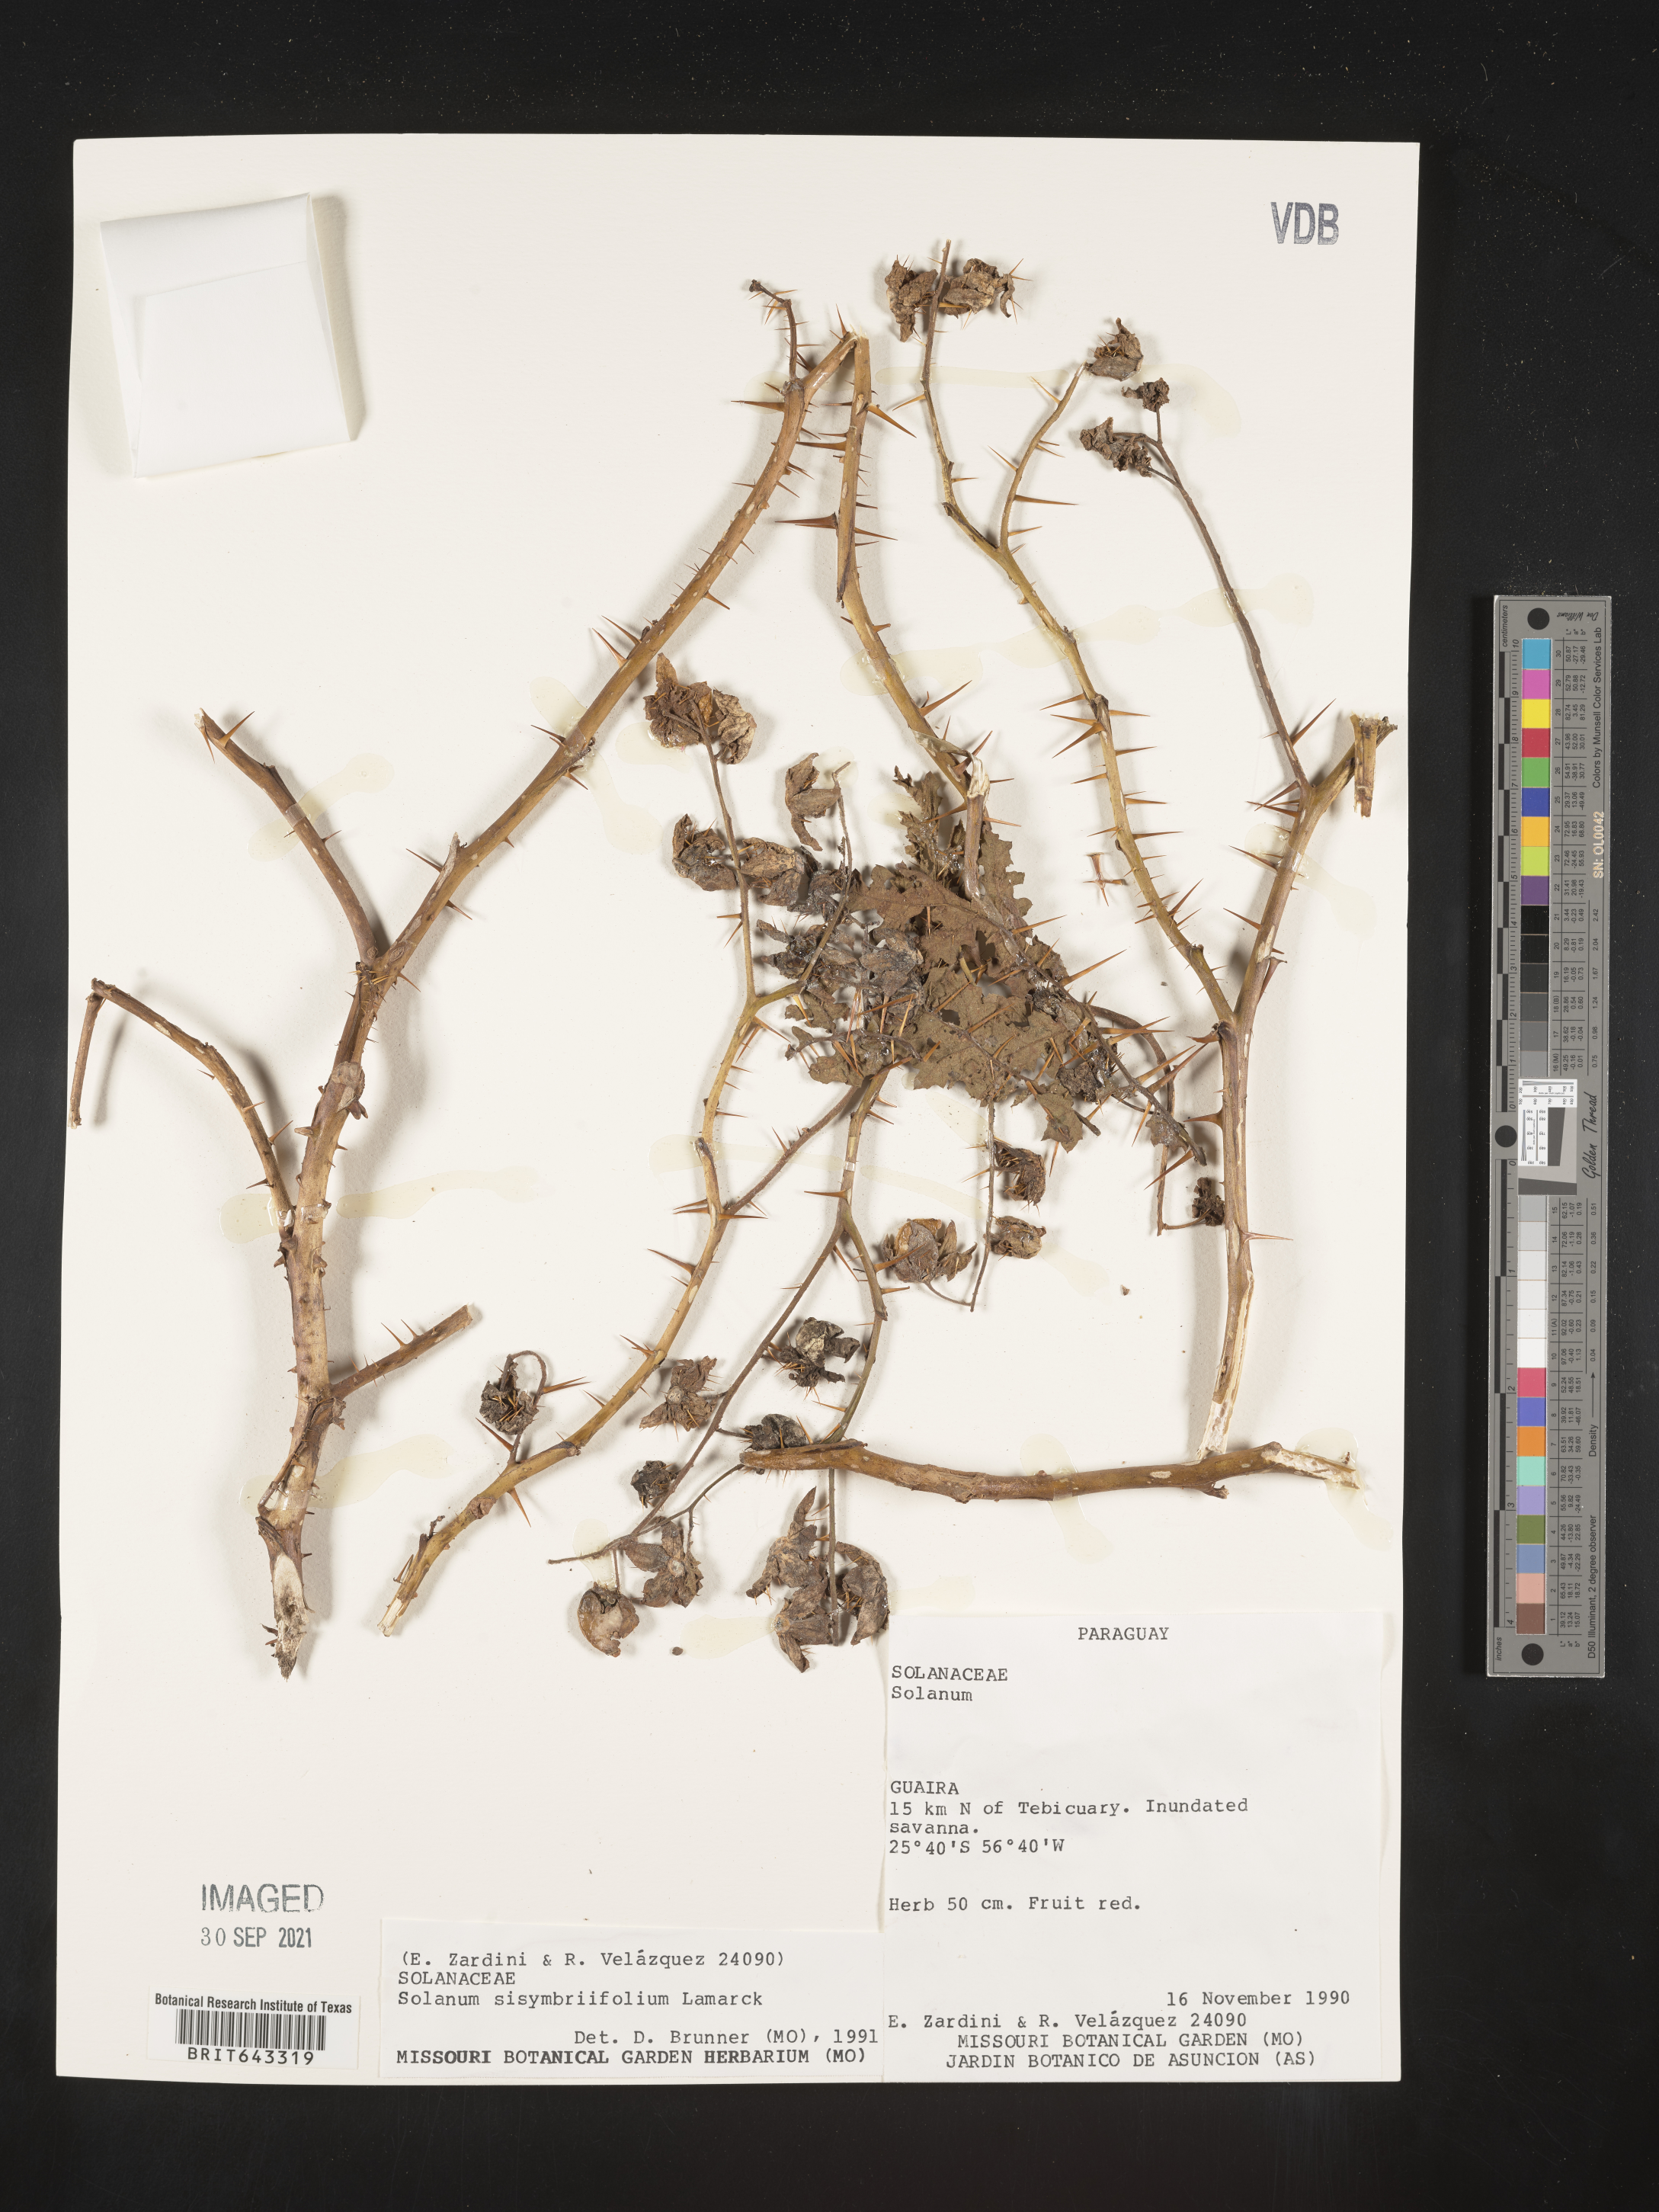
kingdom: Plantae
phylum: Tracheophyta
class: Magnoliopsida
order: Solanales
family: Solanaceae
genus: Solanum
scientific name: Solanum
